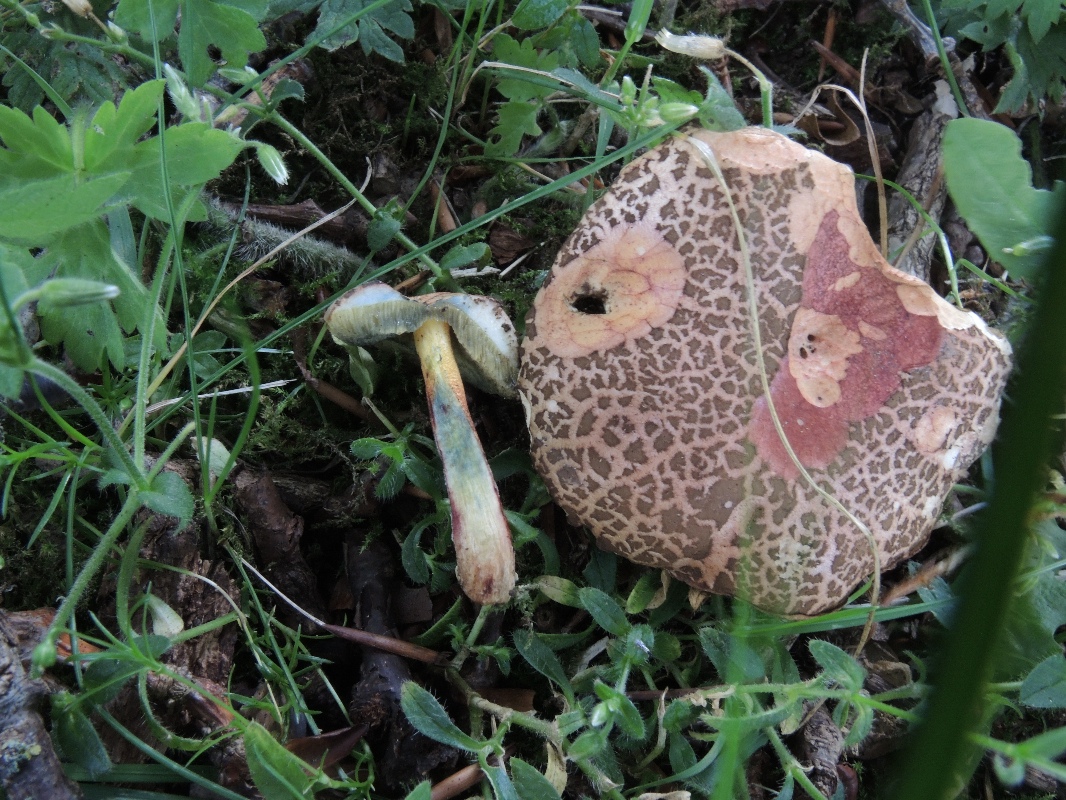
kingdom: Fungi
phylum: Basidiomycota
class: Agaricomycetes
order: Boletales
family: Boletaceae
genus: Xerocomellus
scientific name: Xerocomellus cisalpinus
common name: finsprukken rørhat
